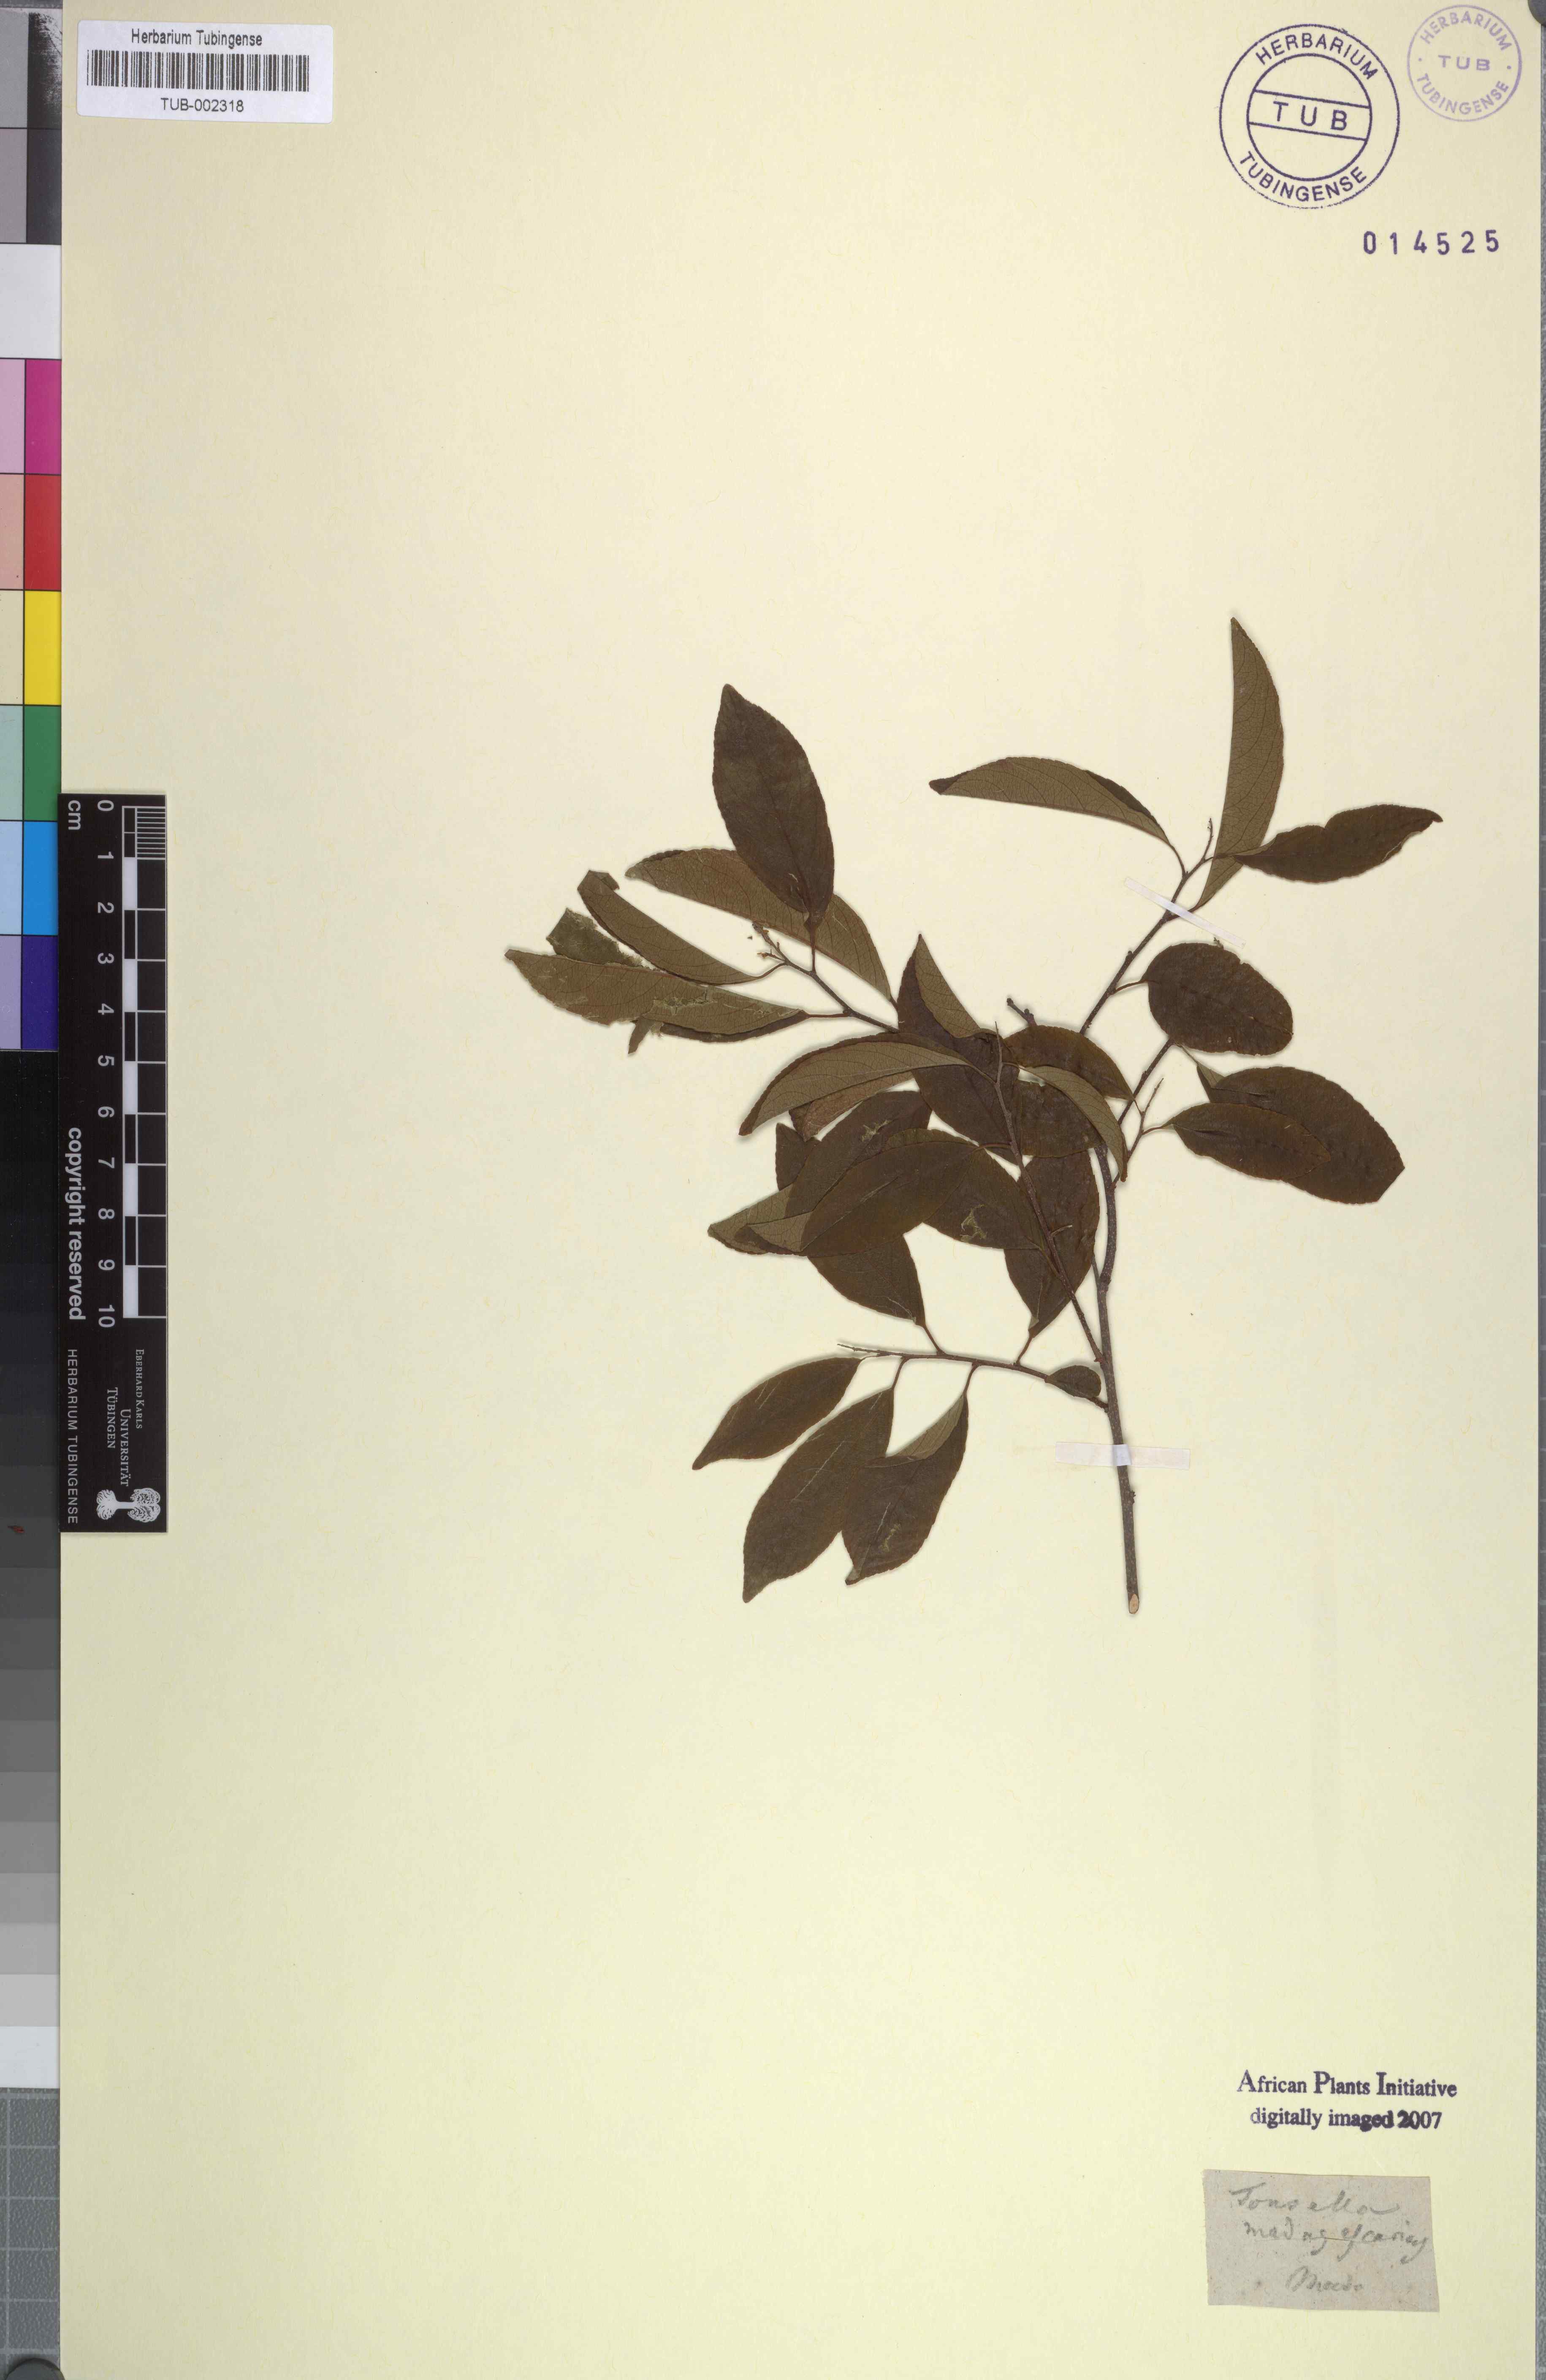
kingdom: Plantae
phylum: Tracheophyta
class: Magnoliopsida
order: Celastrales
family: Celastraceae
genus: Salacia
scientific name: Salacia madagascariensis
